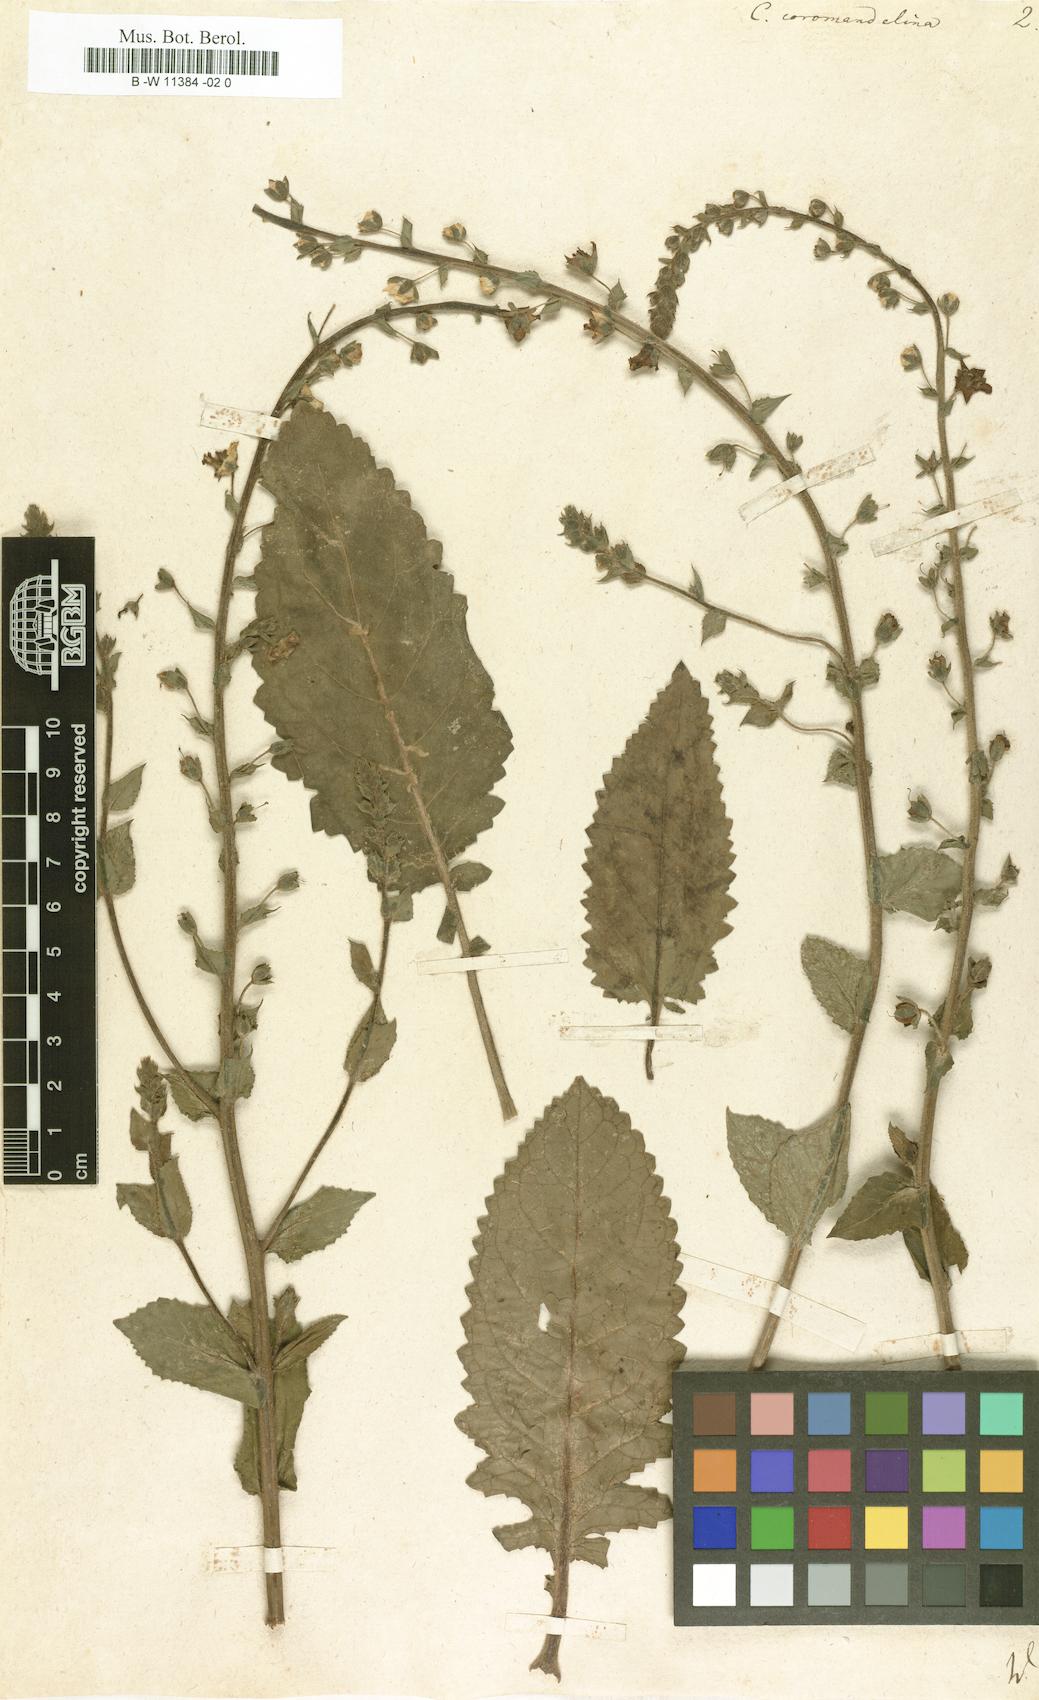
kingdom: Plantae
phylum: Tracheophyta
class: Magnoliopsida
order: Lamiales
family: Scrophulariaceae
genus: Verbascum
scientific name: Verbascum coromandelianum
